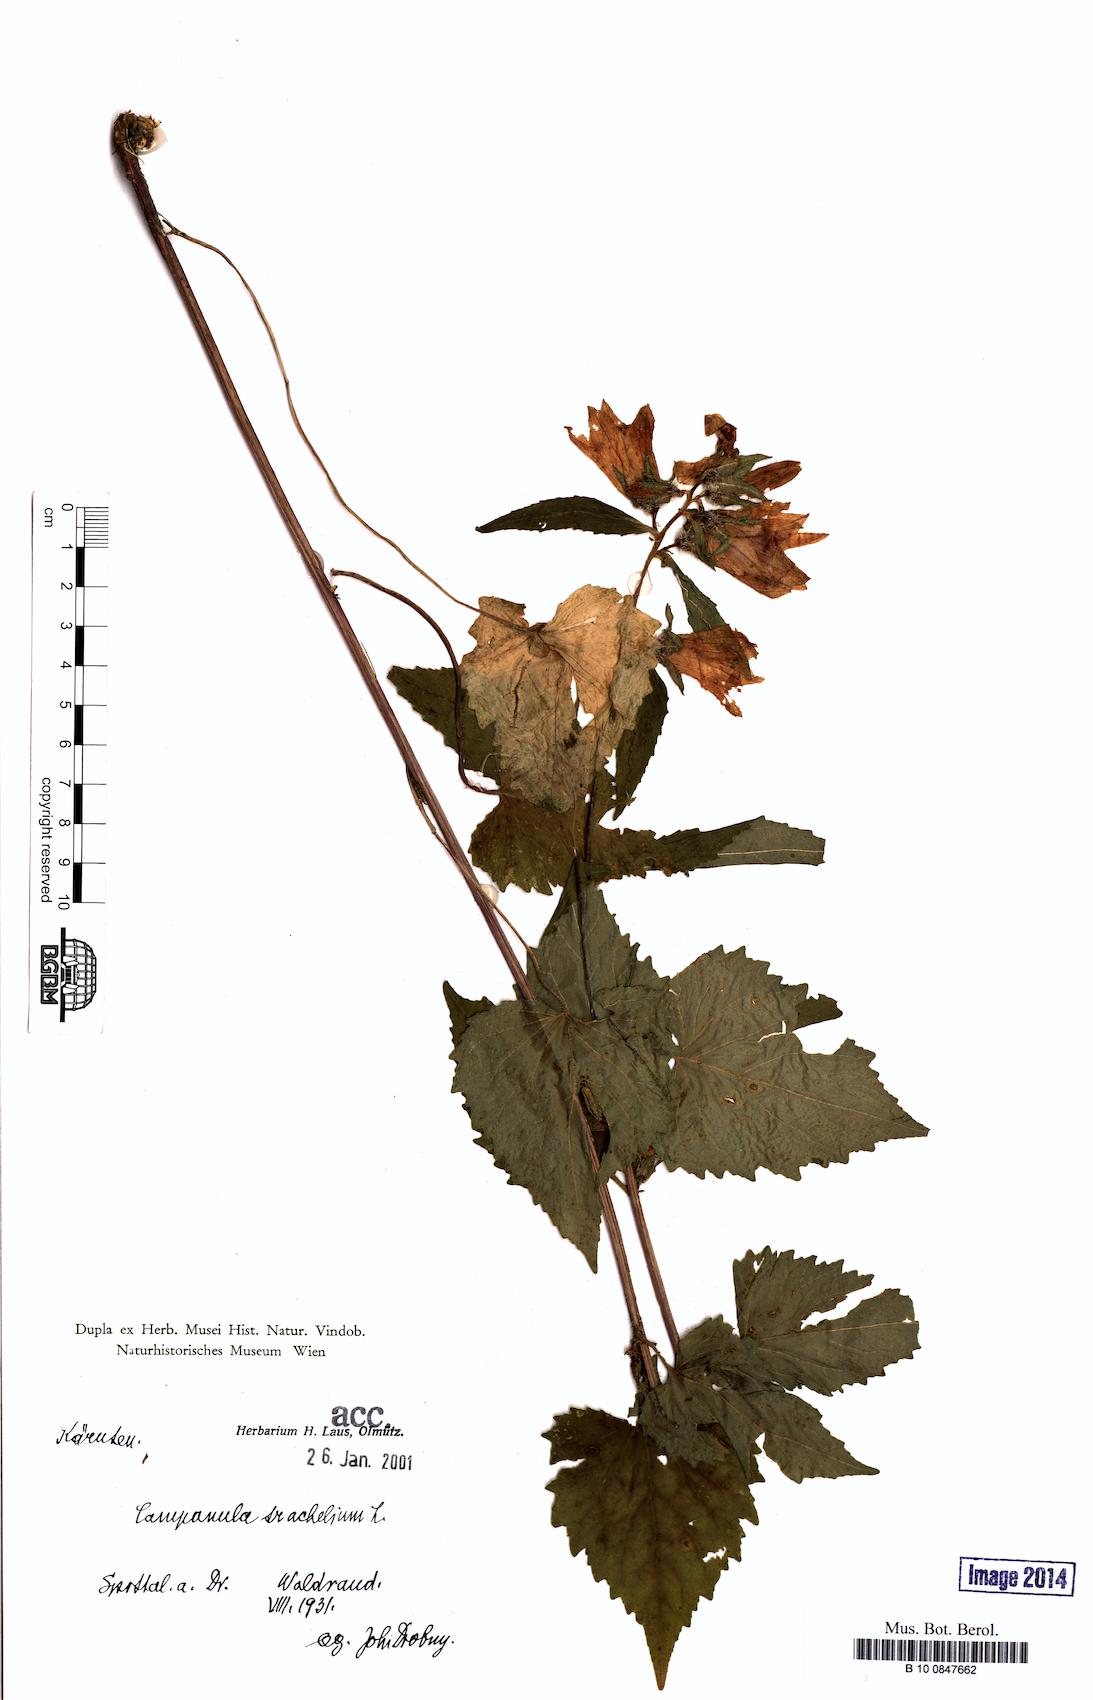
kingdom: Plantae
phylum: Tracheophyta
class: Magnoliopsida
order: Asterales
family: Campanulaceae
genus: Campanula
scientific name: Campanula trachelium
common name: Nettle-leaved bellflower
